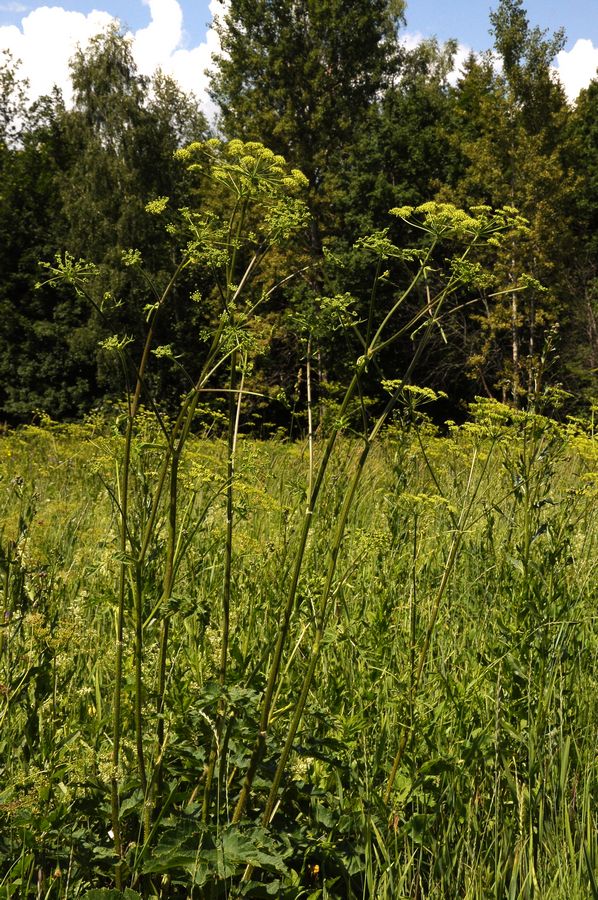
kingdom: Plantae
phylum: Tracheophyta
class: Magnoliopsida
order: Apiales
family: Apiaceae
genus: Heracleum
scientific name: Heracleum sphondylium
